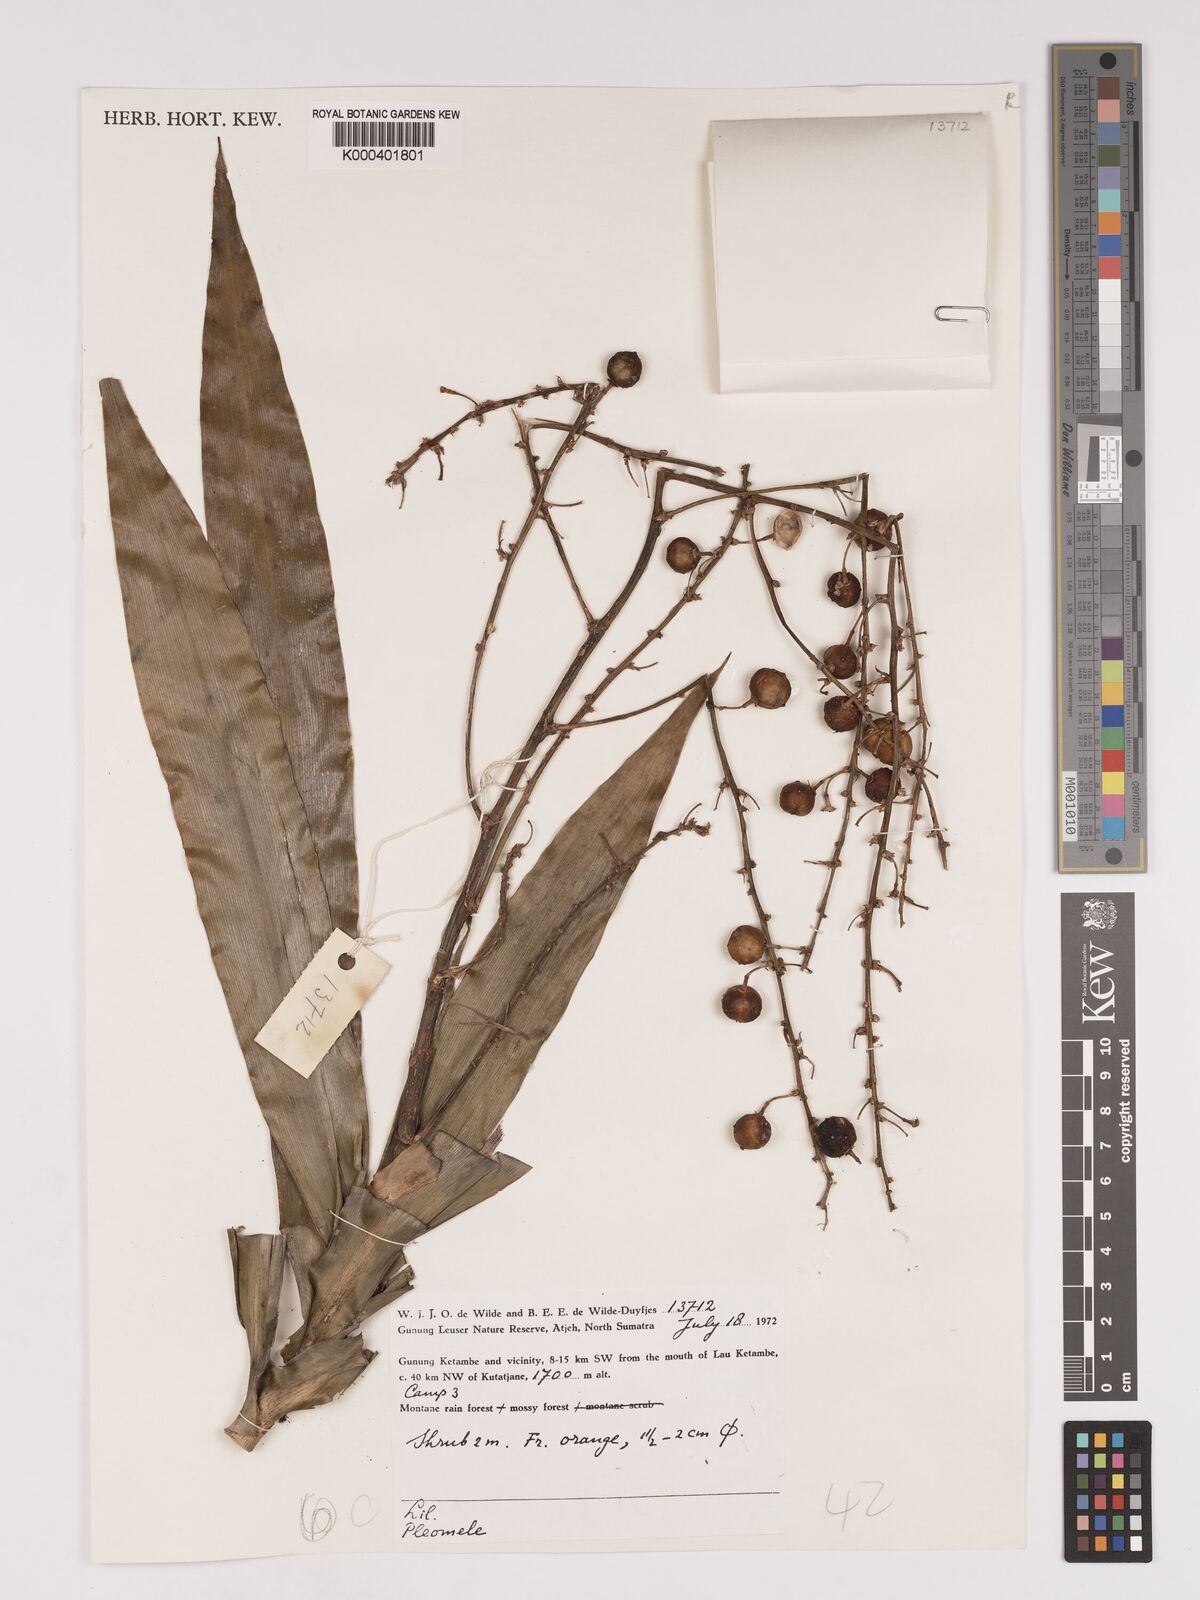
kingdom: Plantae
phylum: Tracheophyta
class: Liliopsida
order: Asparagales
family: Asparagaceae
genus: Dracaena
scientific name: Dracaena
